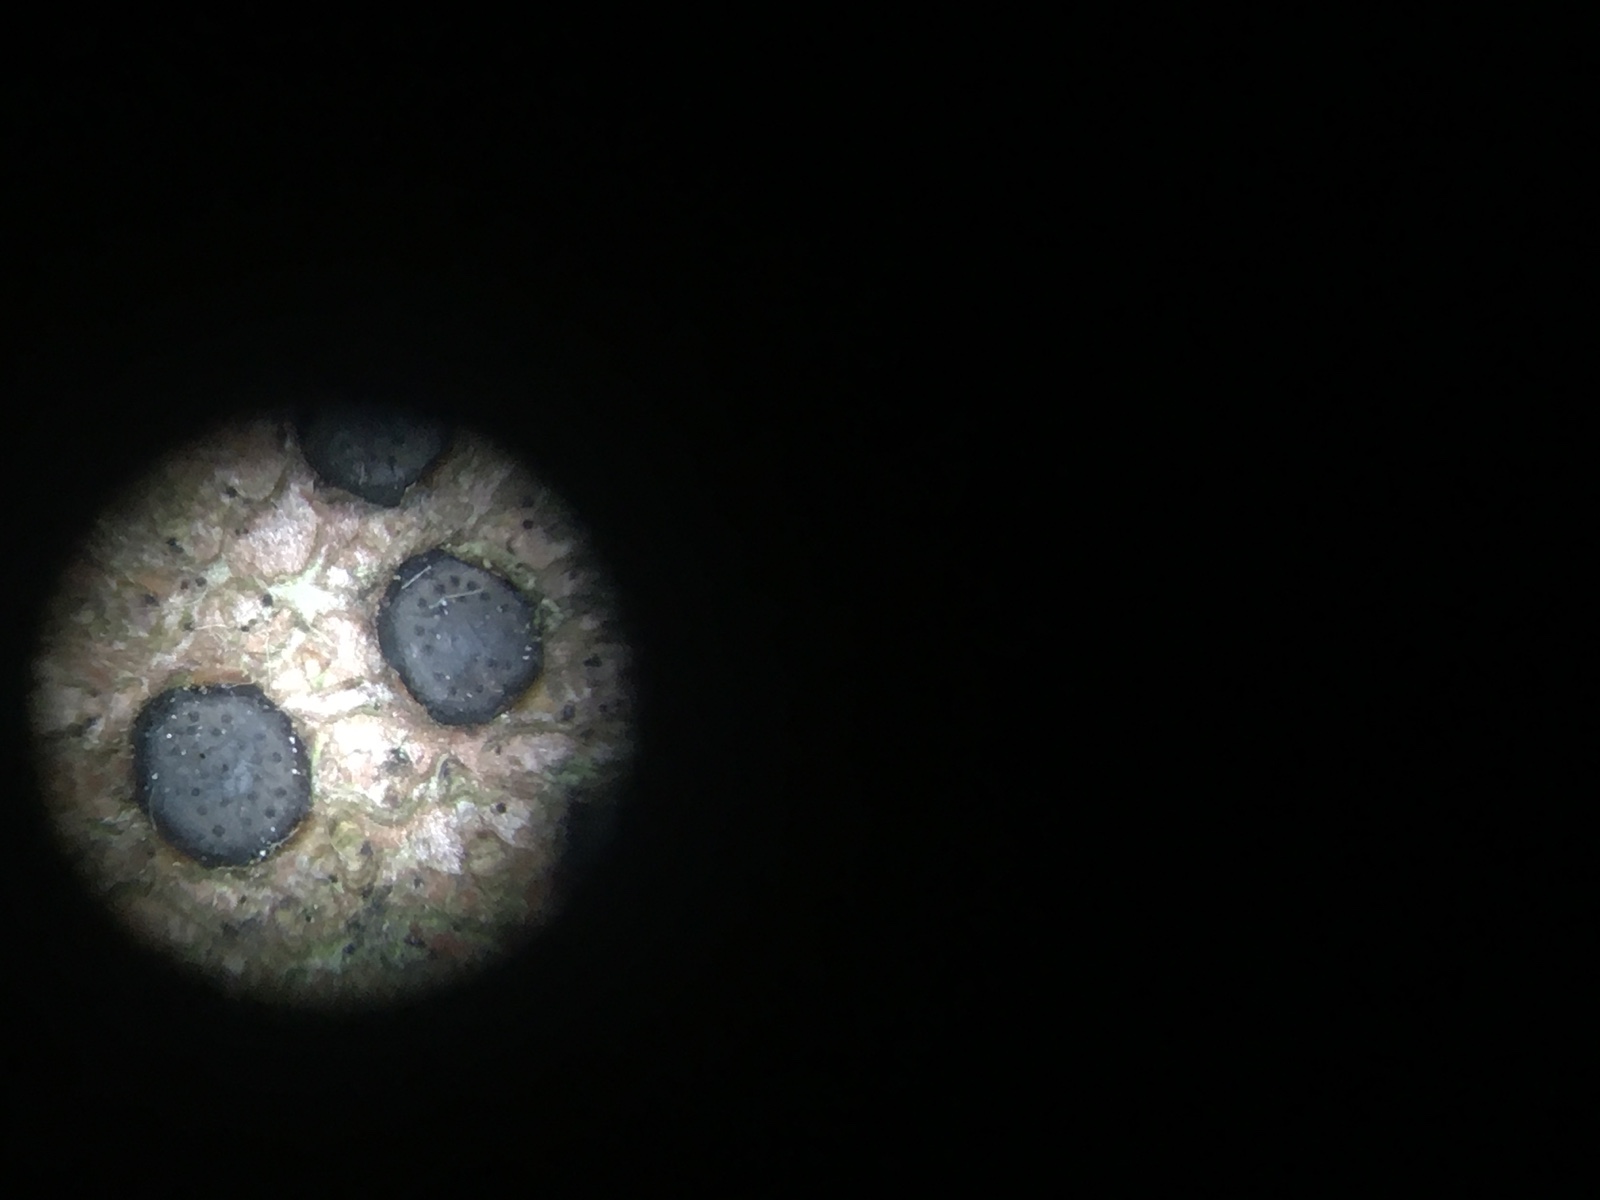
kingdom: Fungi
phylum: Ascomycota
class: Sordariomycetes
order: Xylariales
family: Diatrypaceae
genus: Diatrype
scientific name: Diatrype disciformis
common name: kant-kulskorpe
